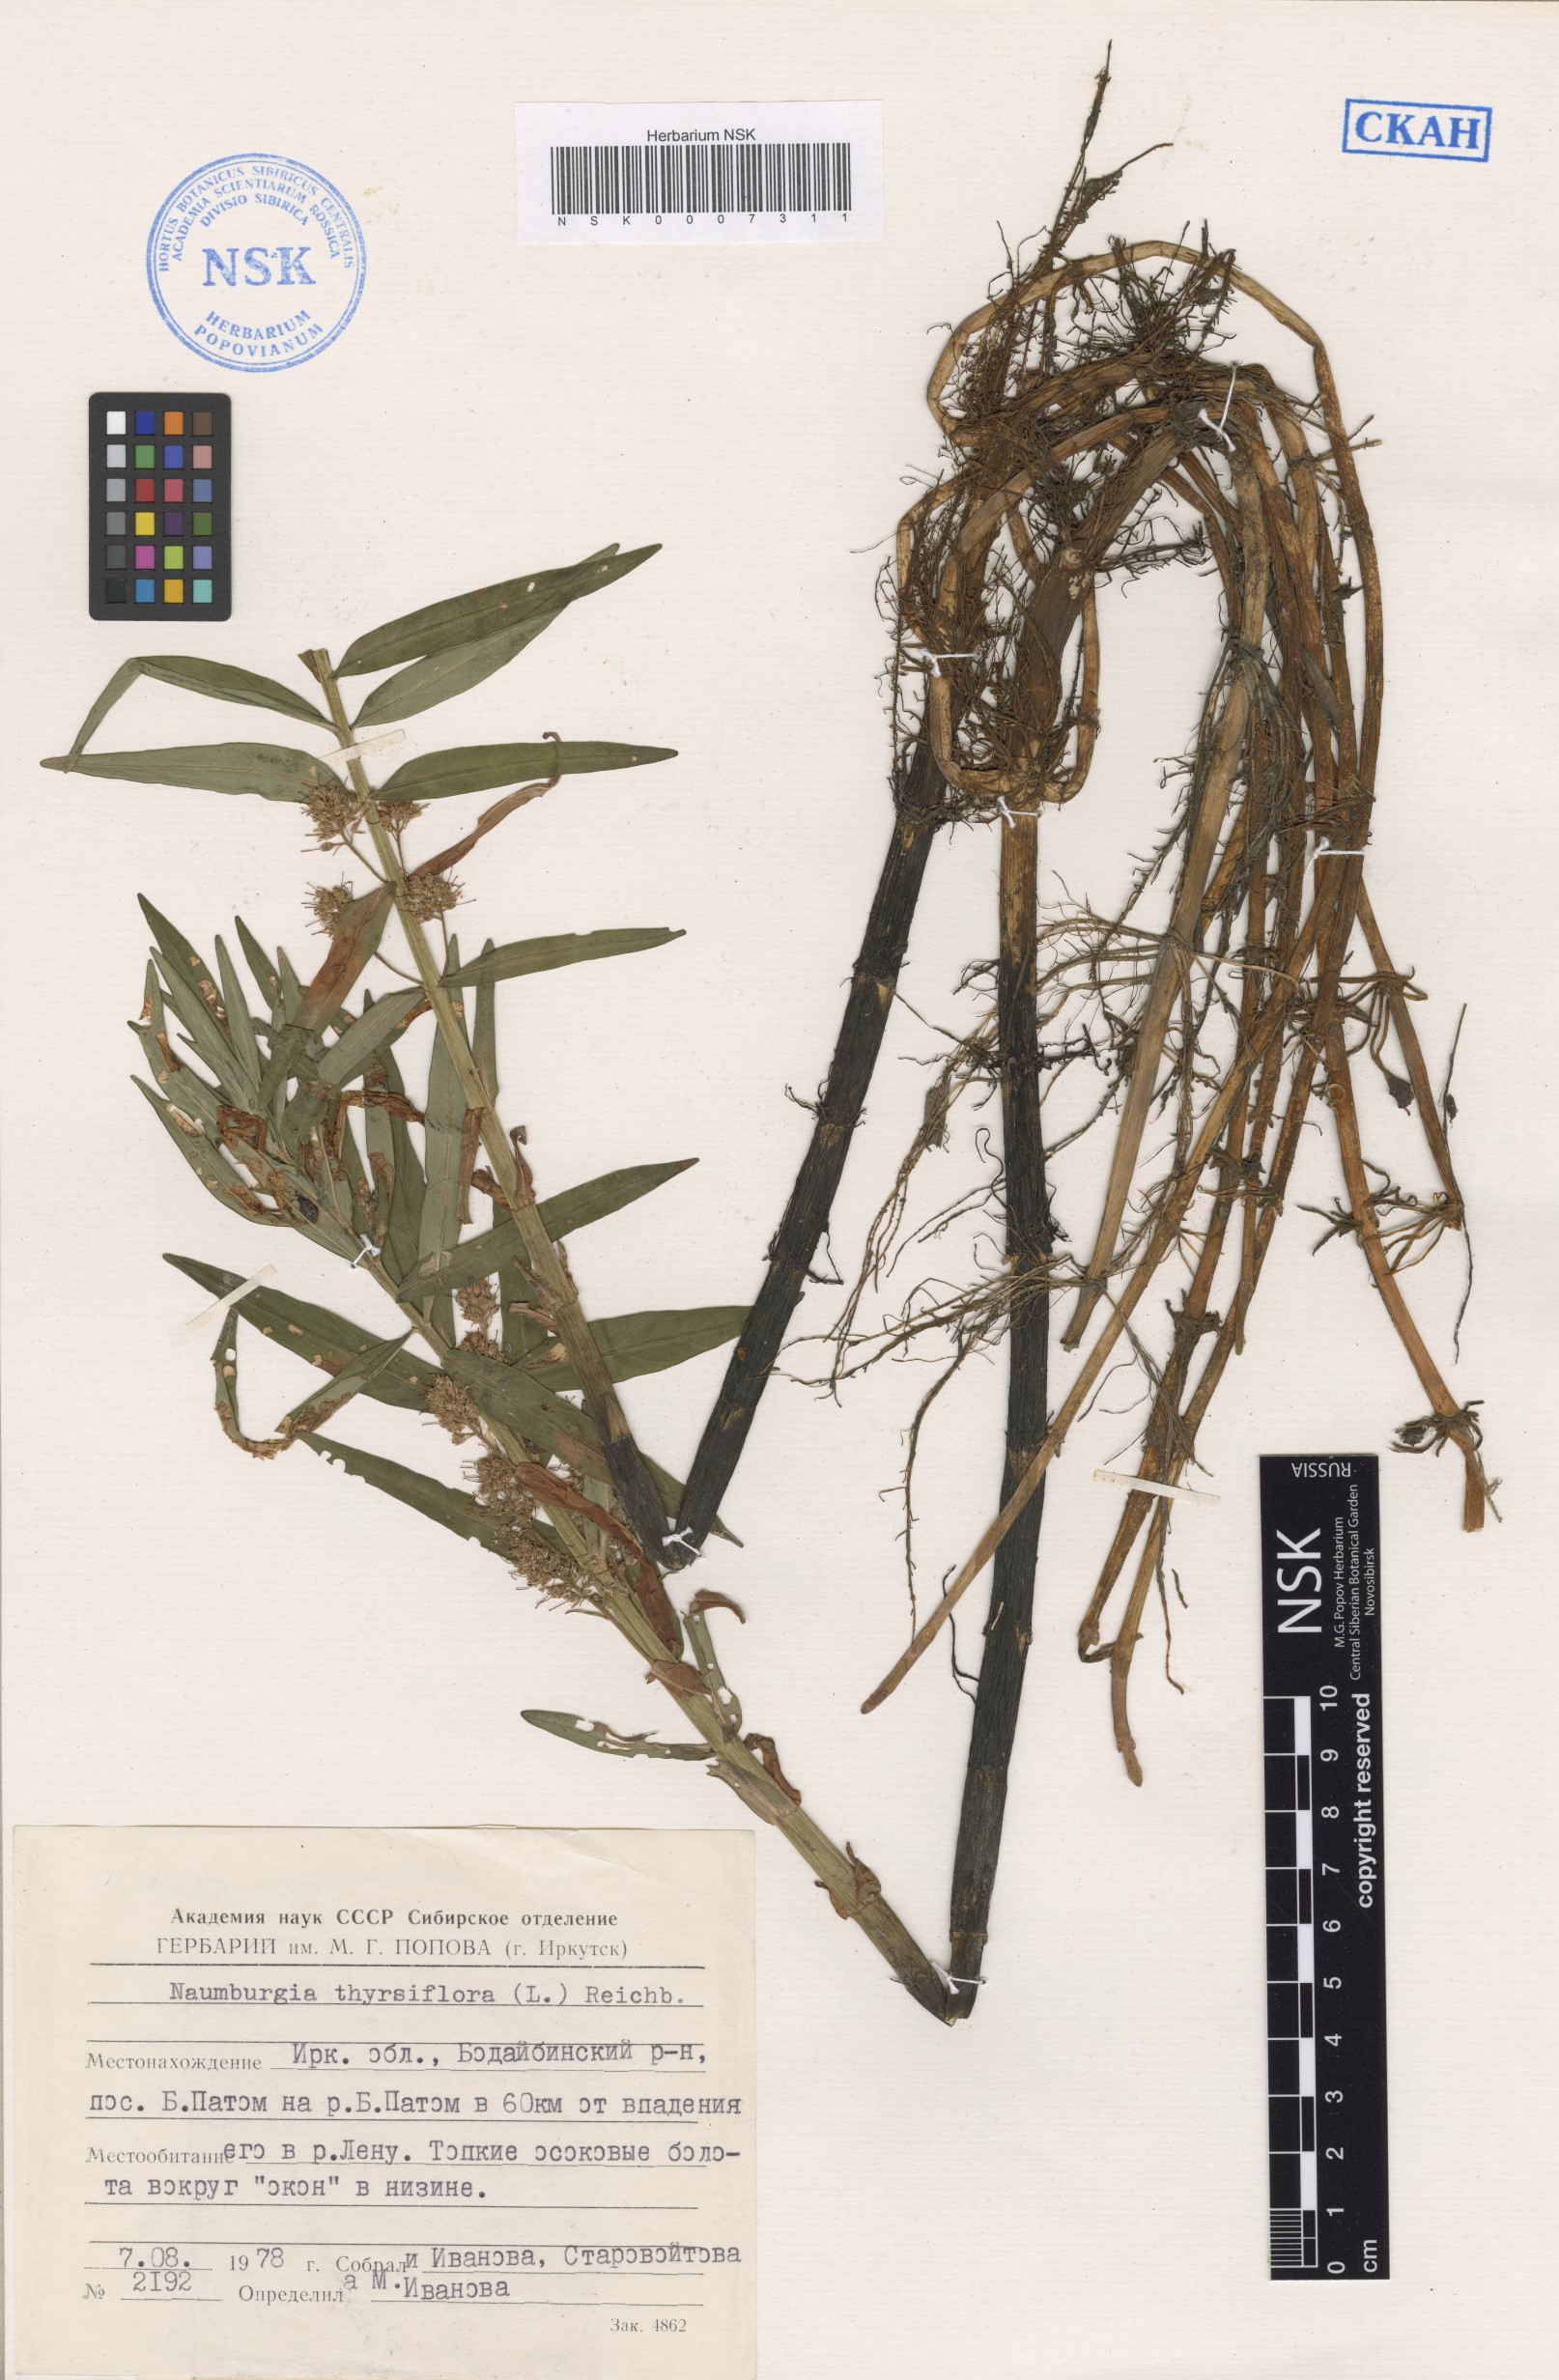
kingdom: Plantae
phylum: Tracheophyta
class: Magnoliopsida
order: Ericales
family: Primulaceae
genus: Lysimachia
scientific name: Lysimachia thyrsiflora
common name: Tufted loosestrife
